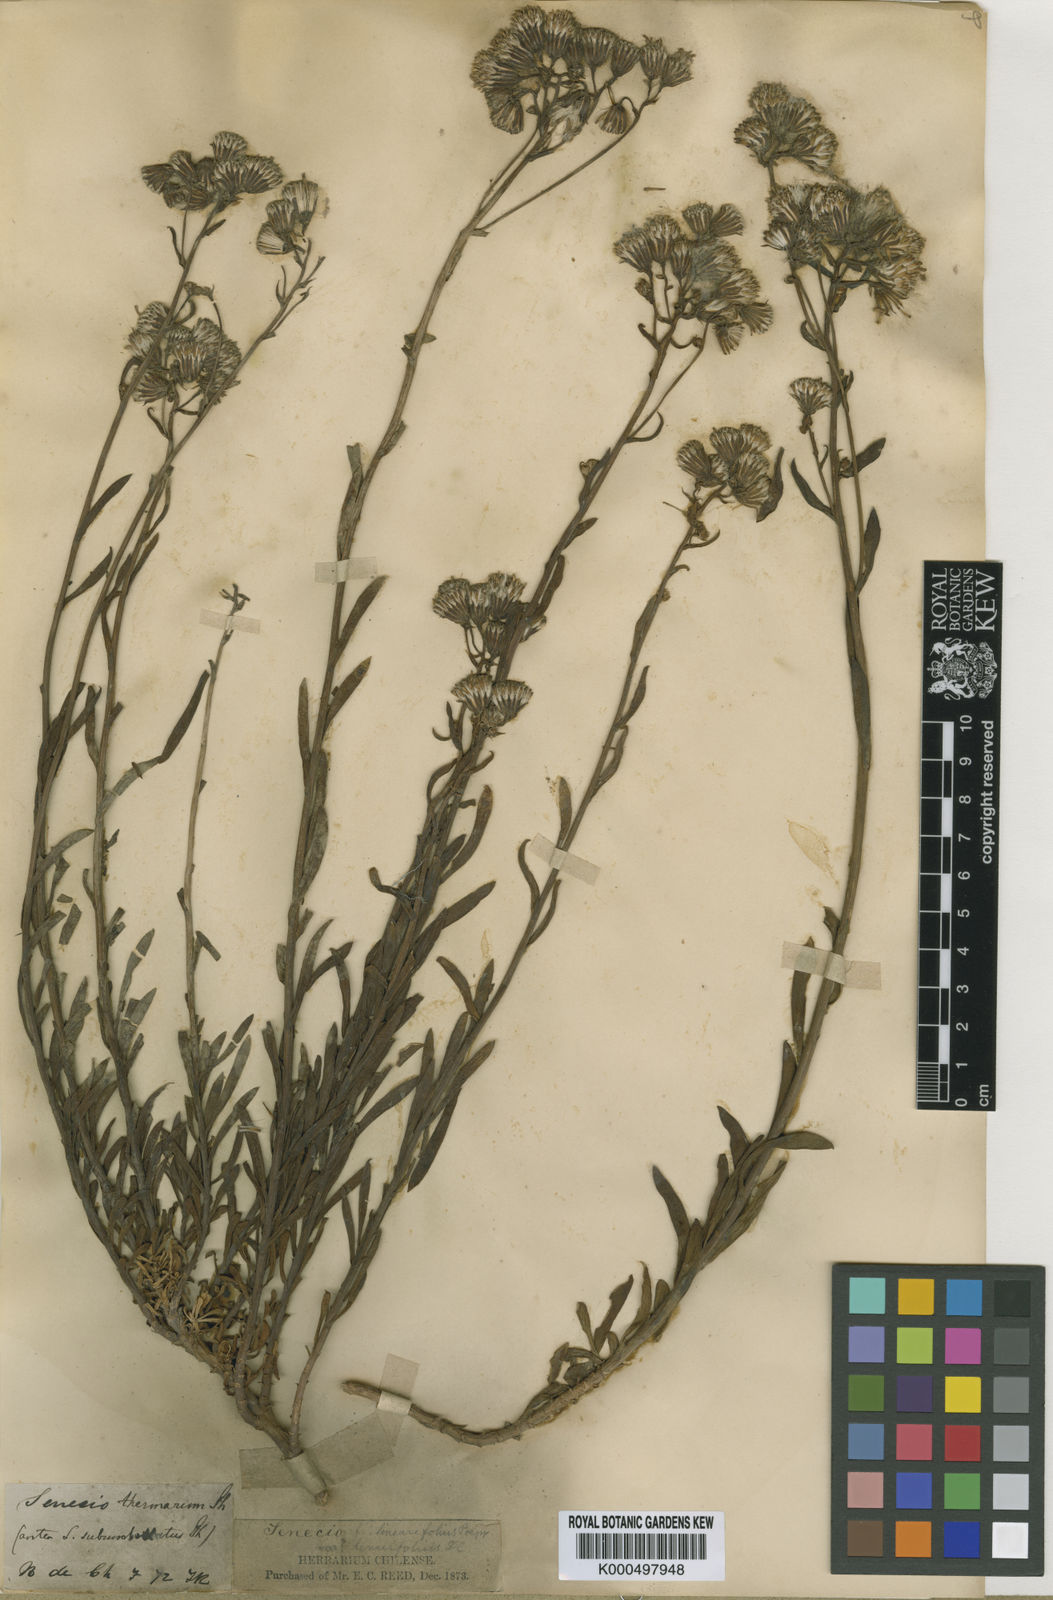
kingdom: Plantae
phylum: Tracheophyta
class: Magnoliopsida
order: Asterales
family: Asteraceae
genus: Senecio
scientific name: Senecio subumbellatus
